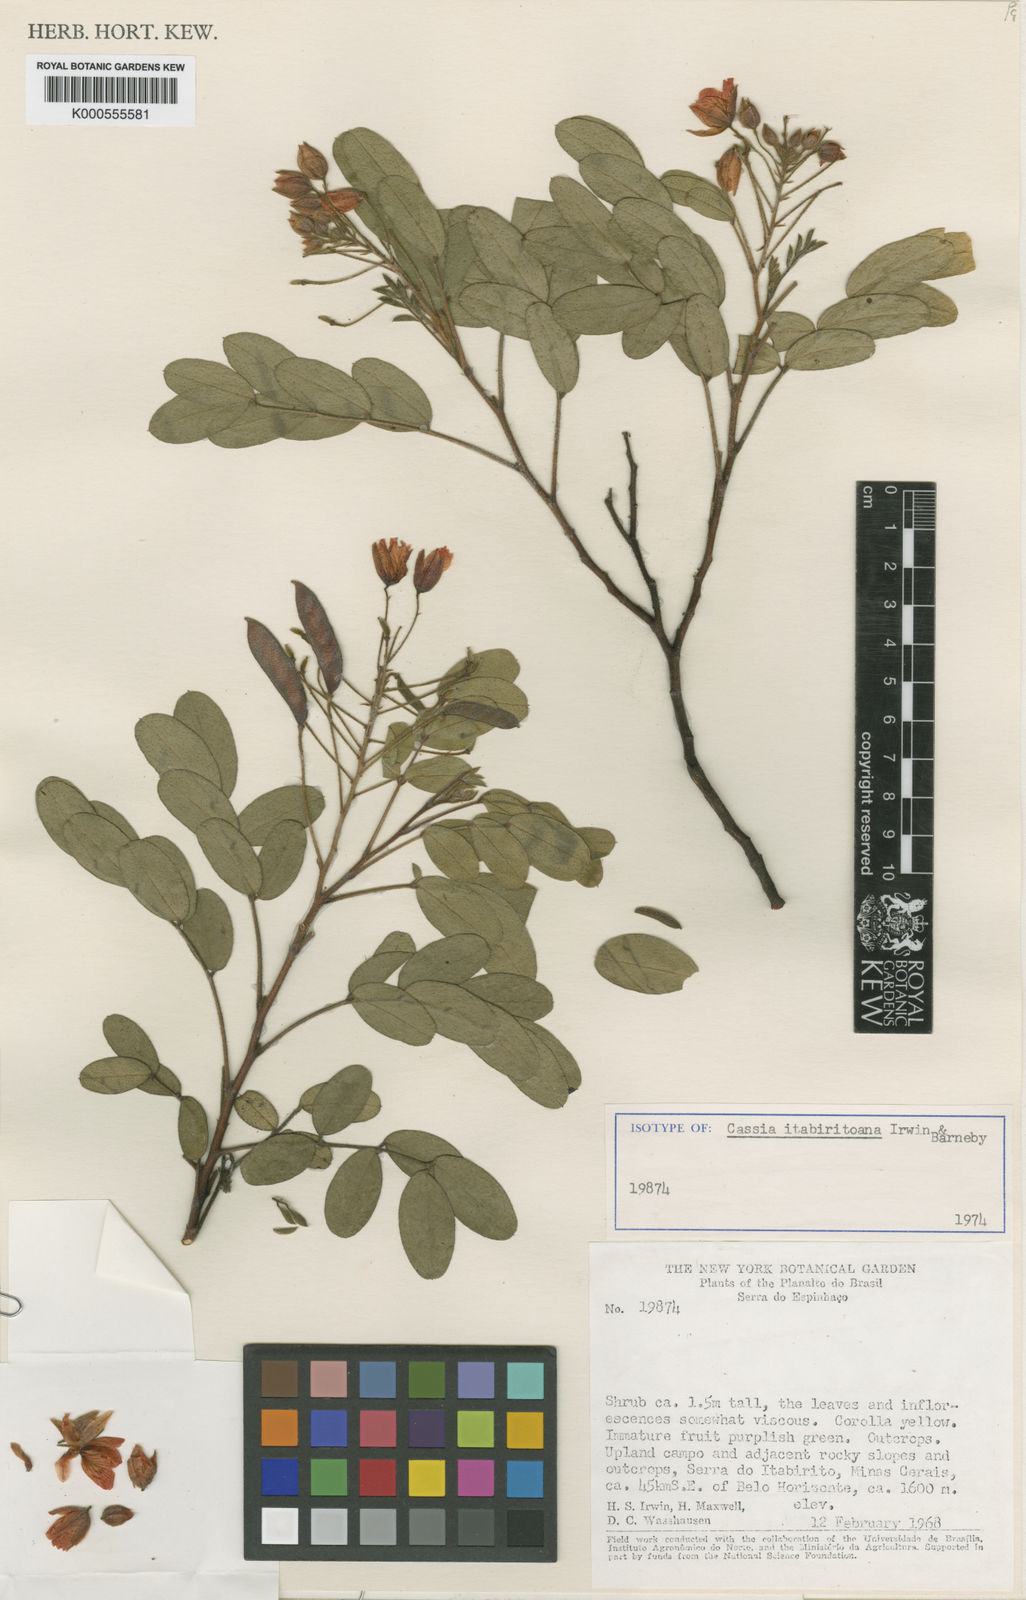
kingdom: Plantae
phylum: Tracheophyta
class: Magnoliopsida
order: Fabales
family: Fabaceae
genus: Chamaecrista
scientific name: Chamaecrista itabiritoana
